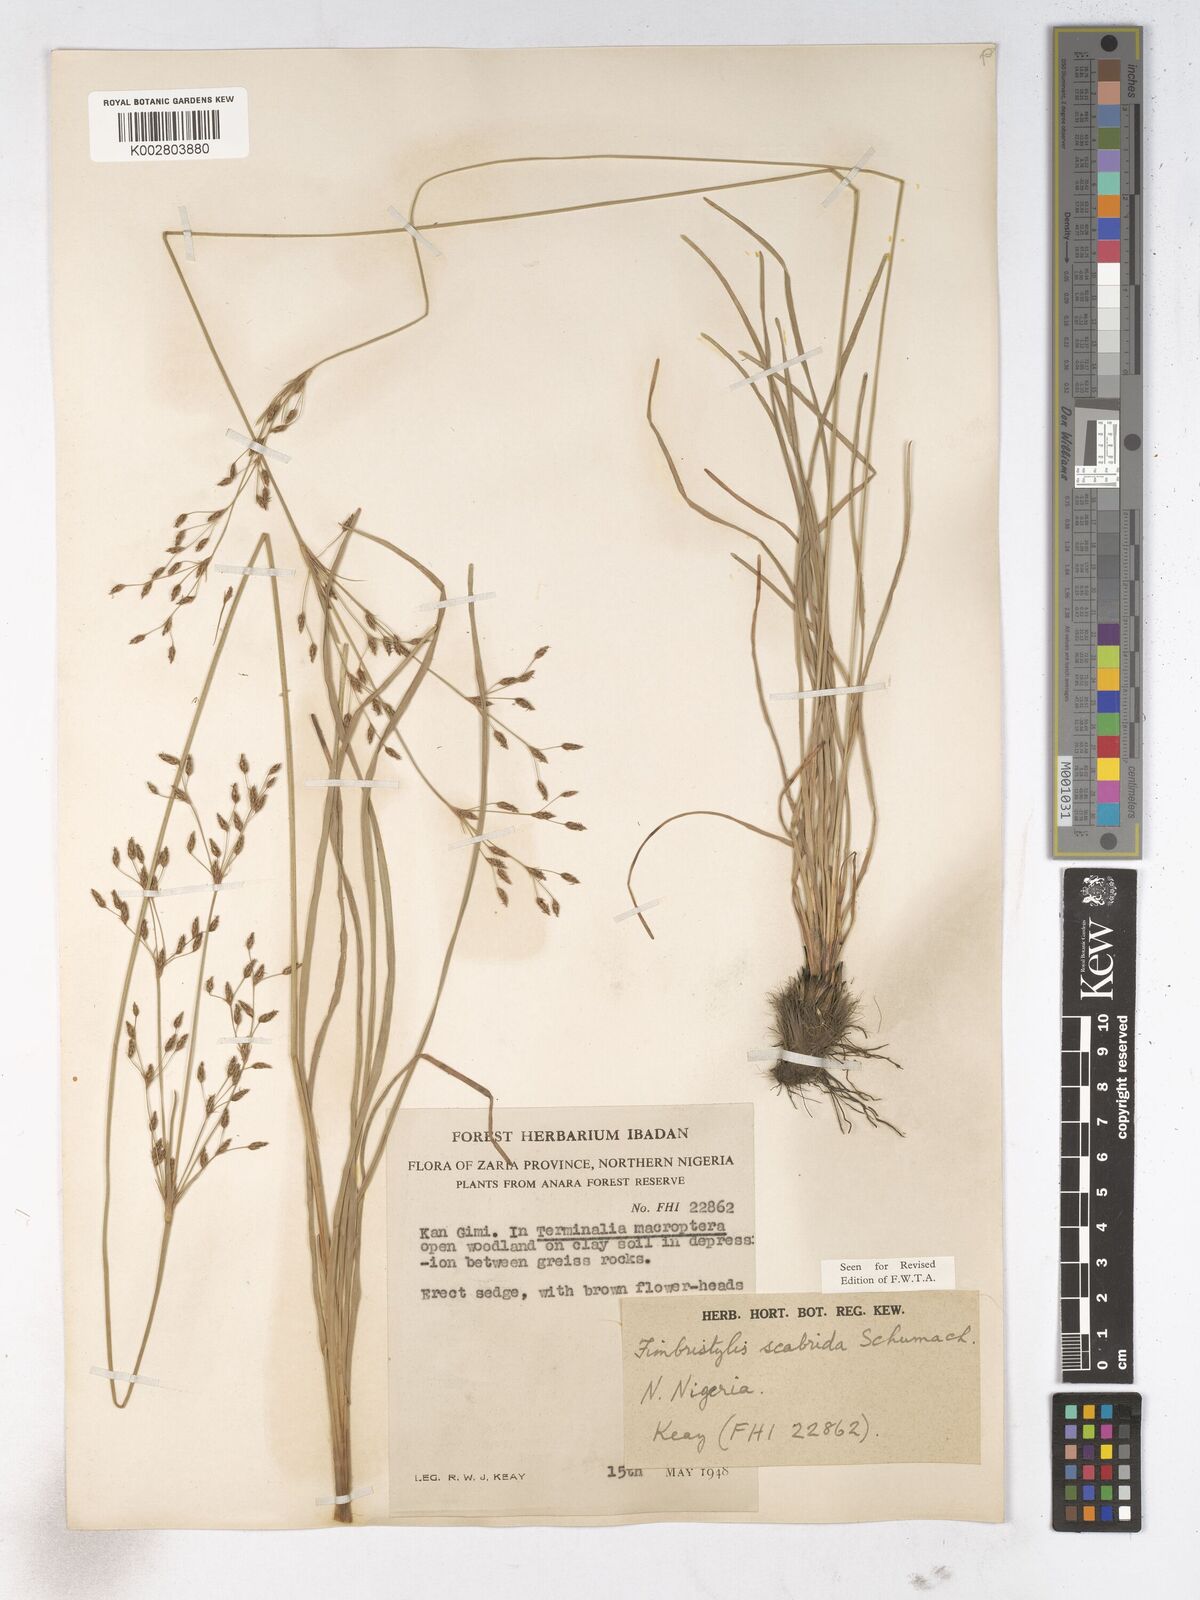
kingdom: Plantae
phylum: Tracheophyta
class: Liliopsida
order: Poales
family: Cyperaceae
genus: Fimbristylis
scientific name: Fimbristylis scabrida
